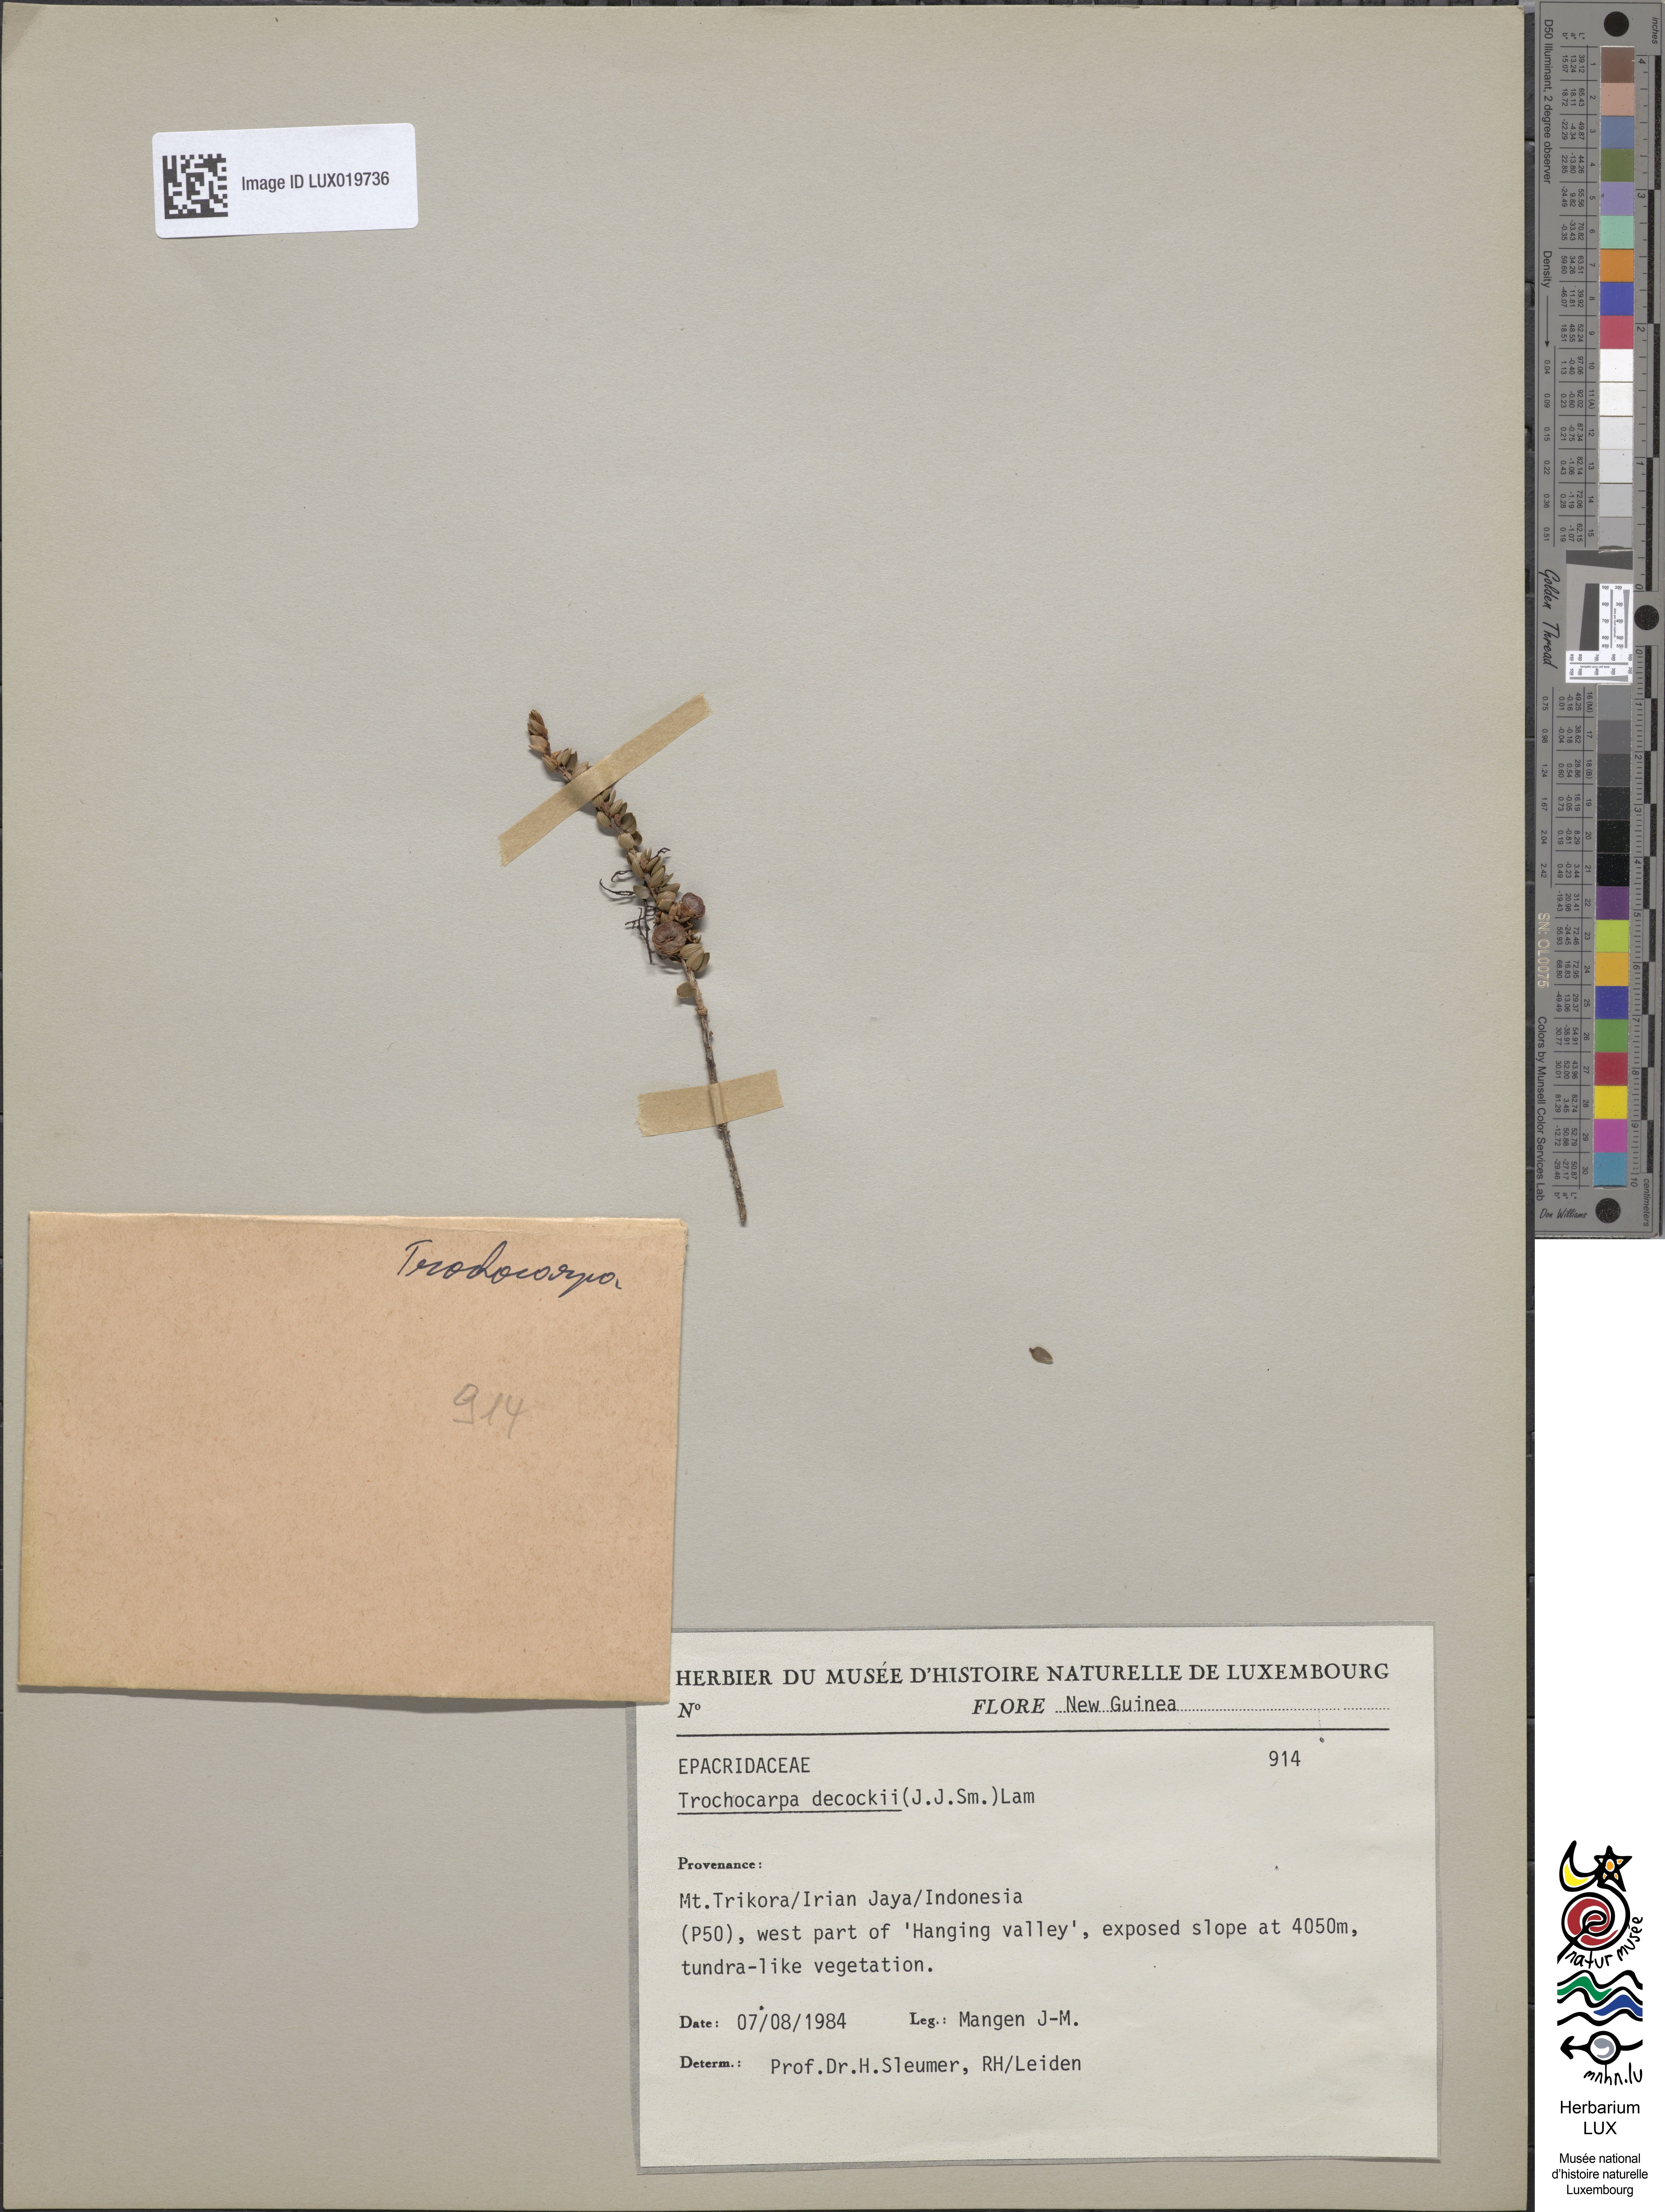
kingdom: Plantae
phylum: Tracheophyta
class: Magnoliopsida
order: Ericales
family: Ericaceae
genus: Trochocarpa
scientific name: Trochocarpa dekockii
